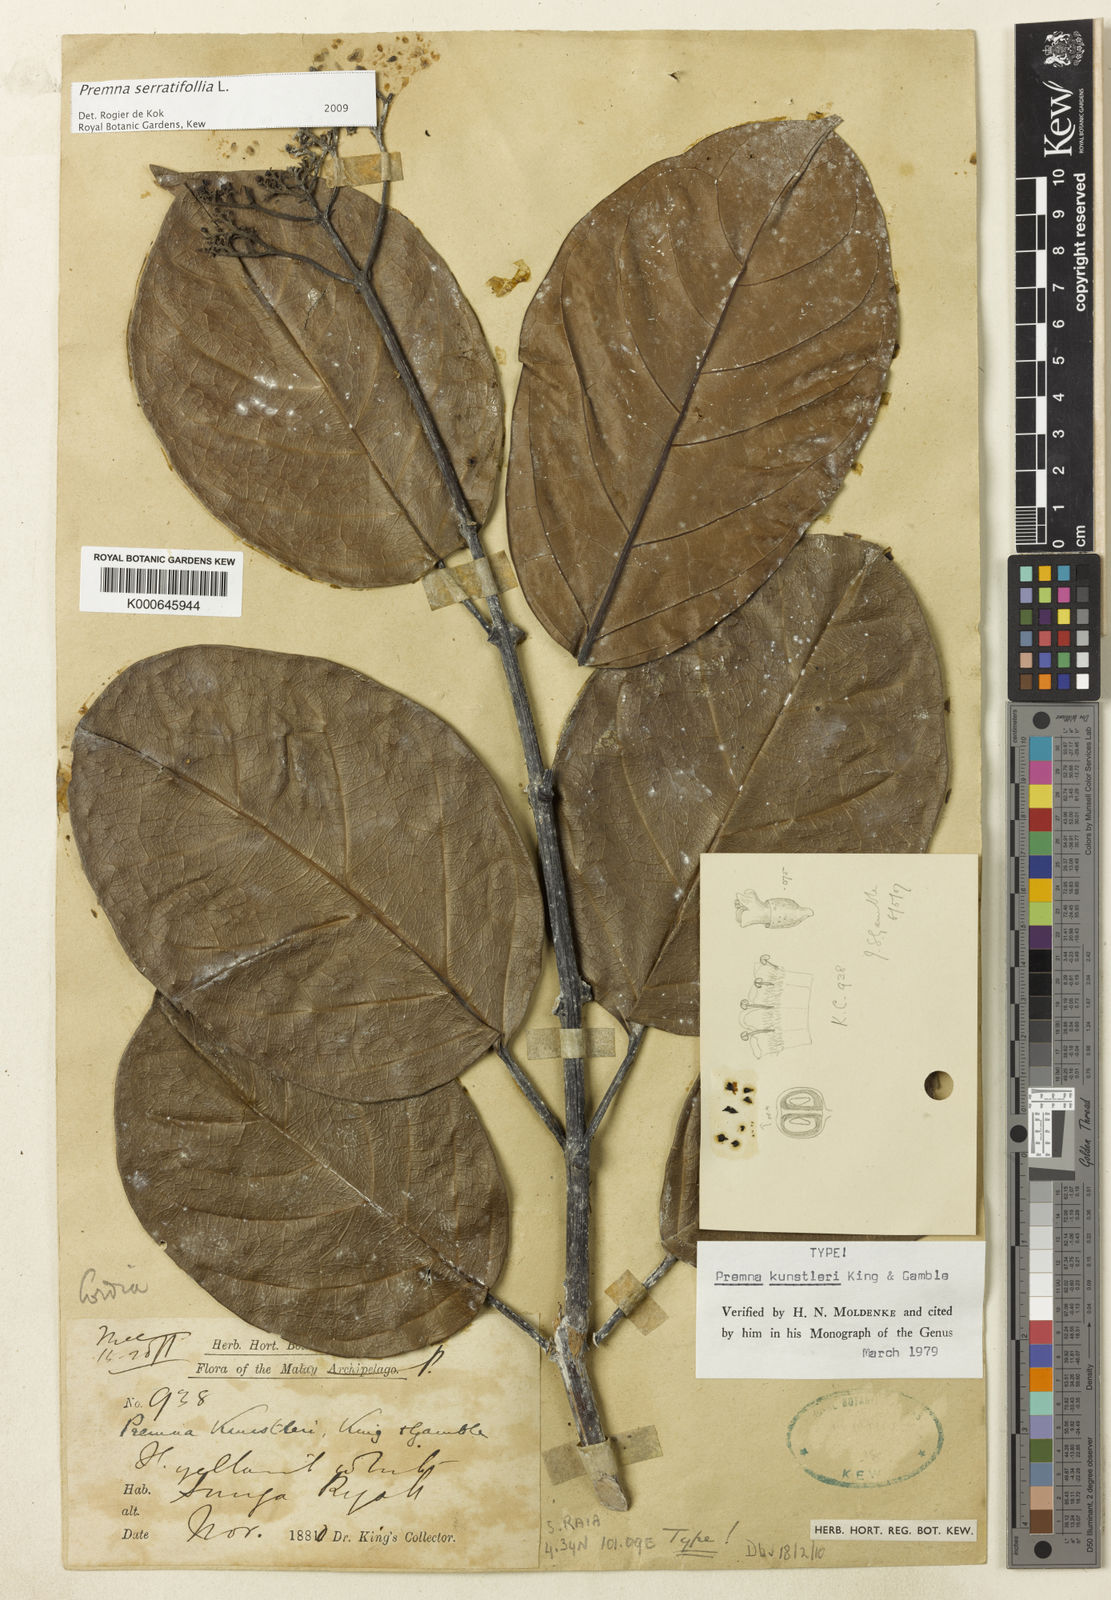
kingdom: Plantae
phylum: Tracheophyta
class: Magnoliopsida
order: Lamiales
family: Lamiaceae
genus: Premna
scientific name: Premna serratifolia
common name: Bastard guelder
